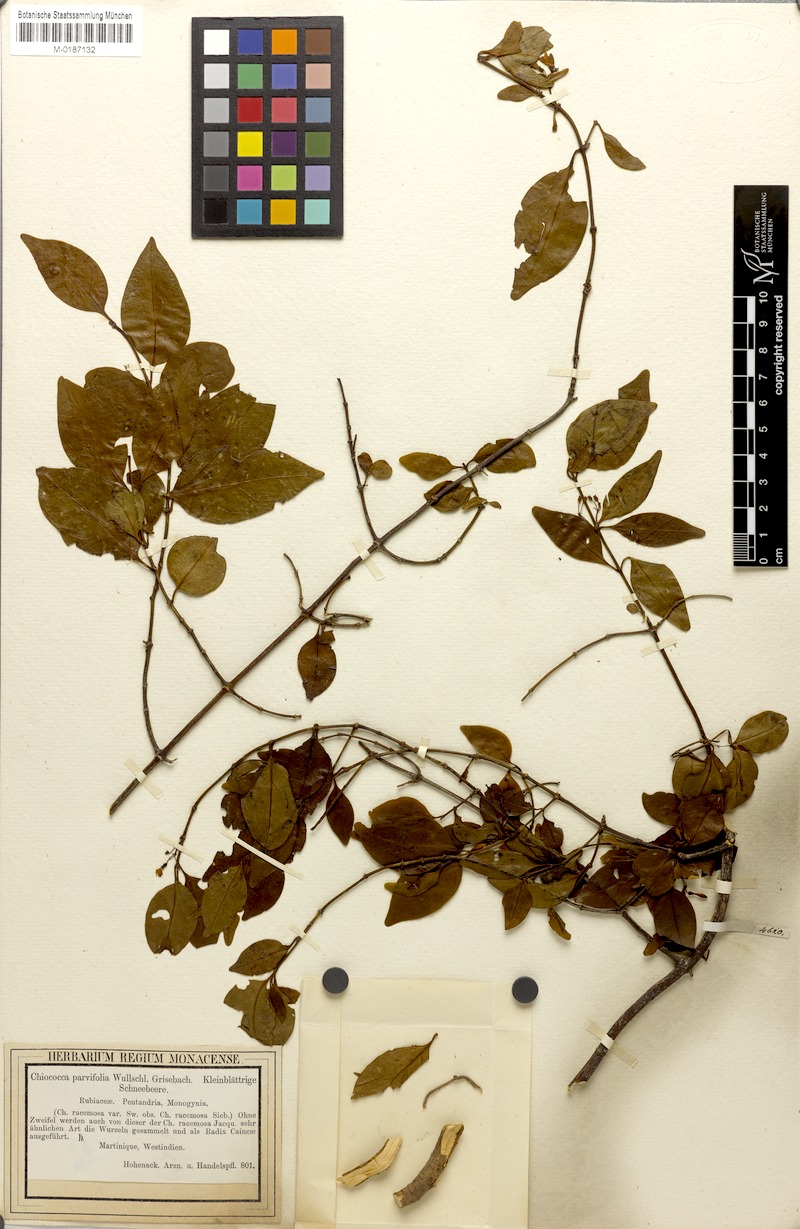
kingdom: Plantae
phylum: Tracheophyta
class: Magnoliopsida
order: Gentianales
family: Rubiaceae
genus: Chiococca
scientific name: Chiococca alba
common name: Snowberry
